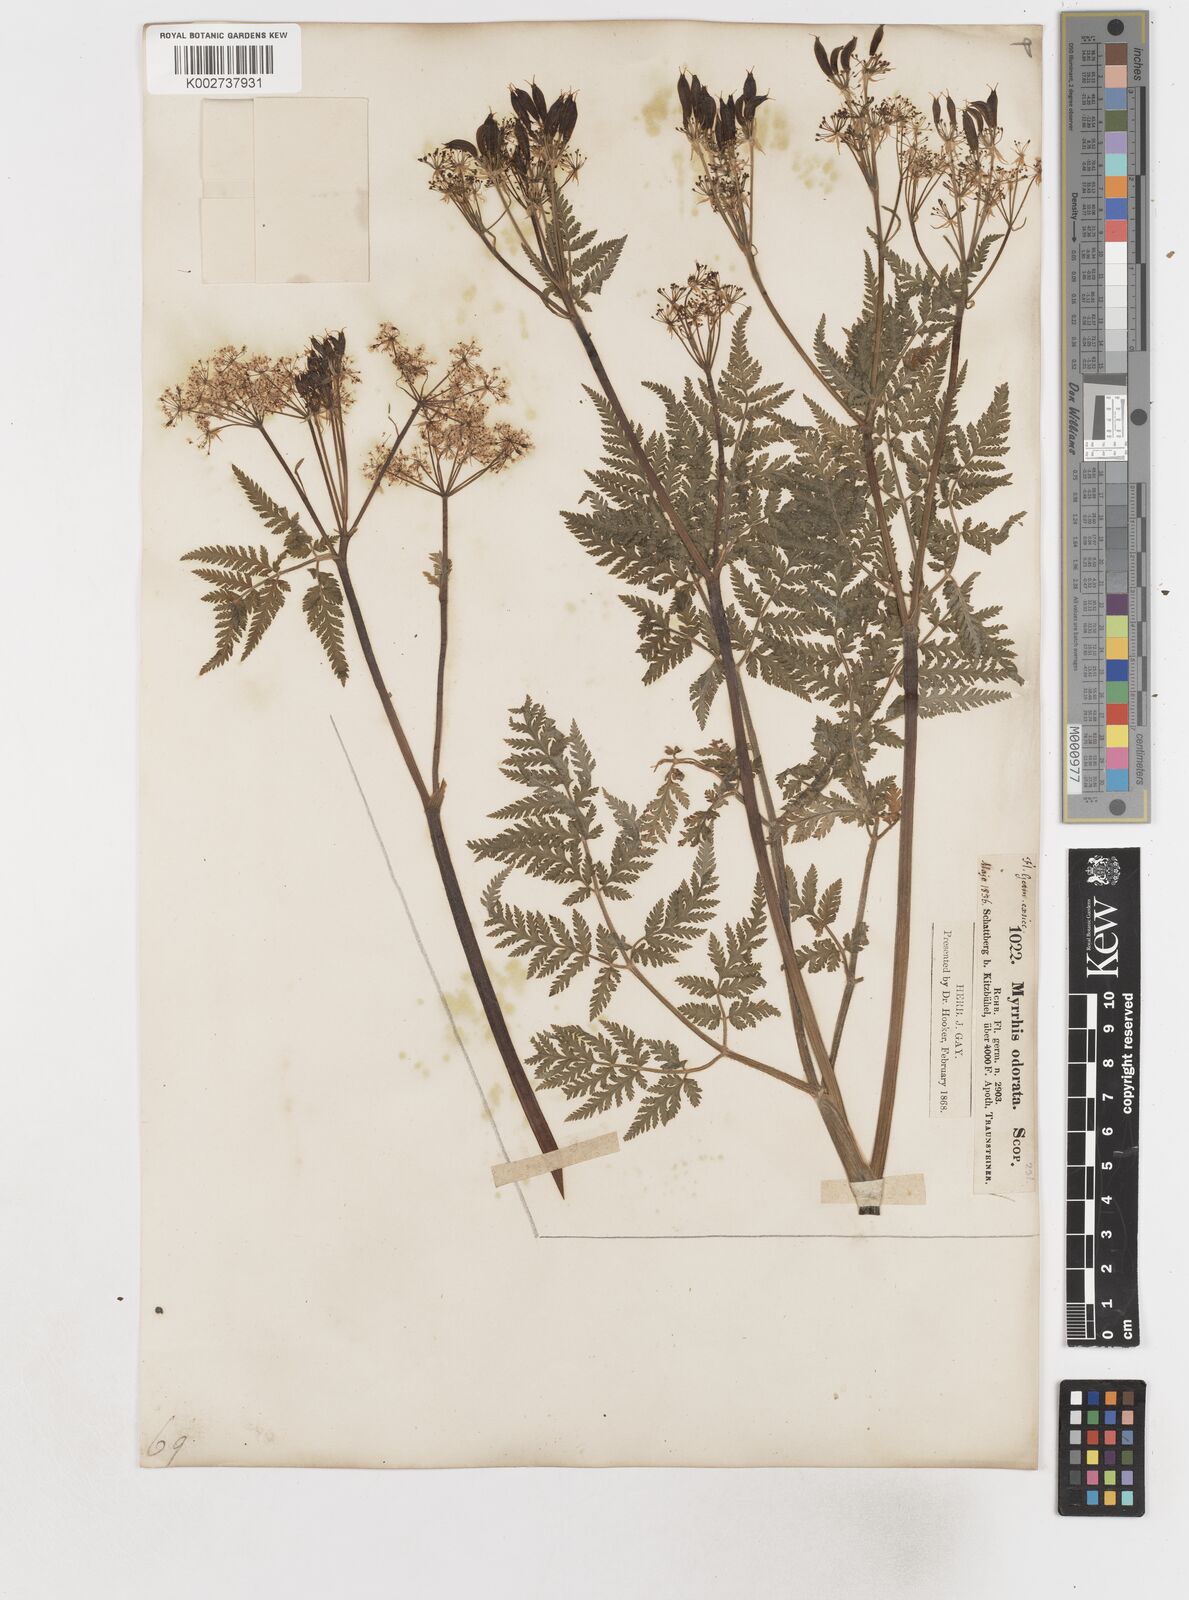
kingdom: Plantae
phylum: Tracheophyta
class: Magnoliopsida
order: Apiales
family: Apiaceae
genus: Myrrhis
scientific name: Myrrhis odorata
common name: Sweet cicely
